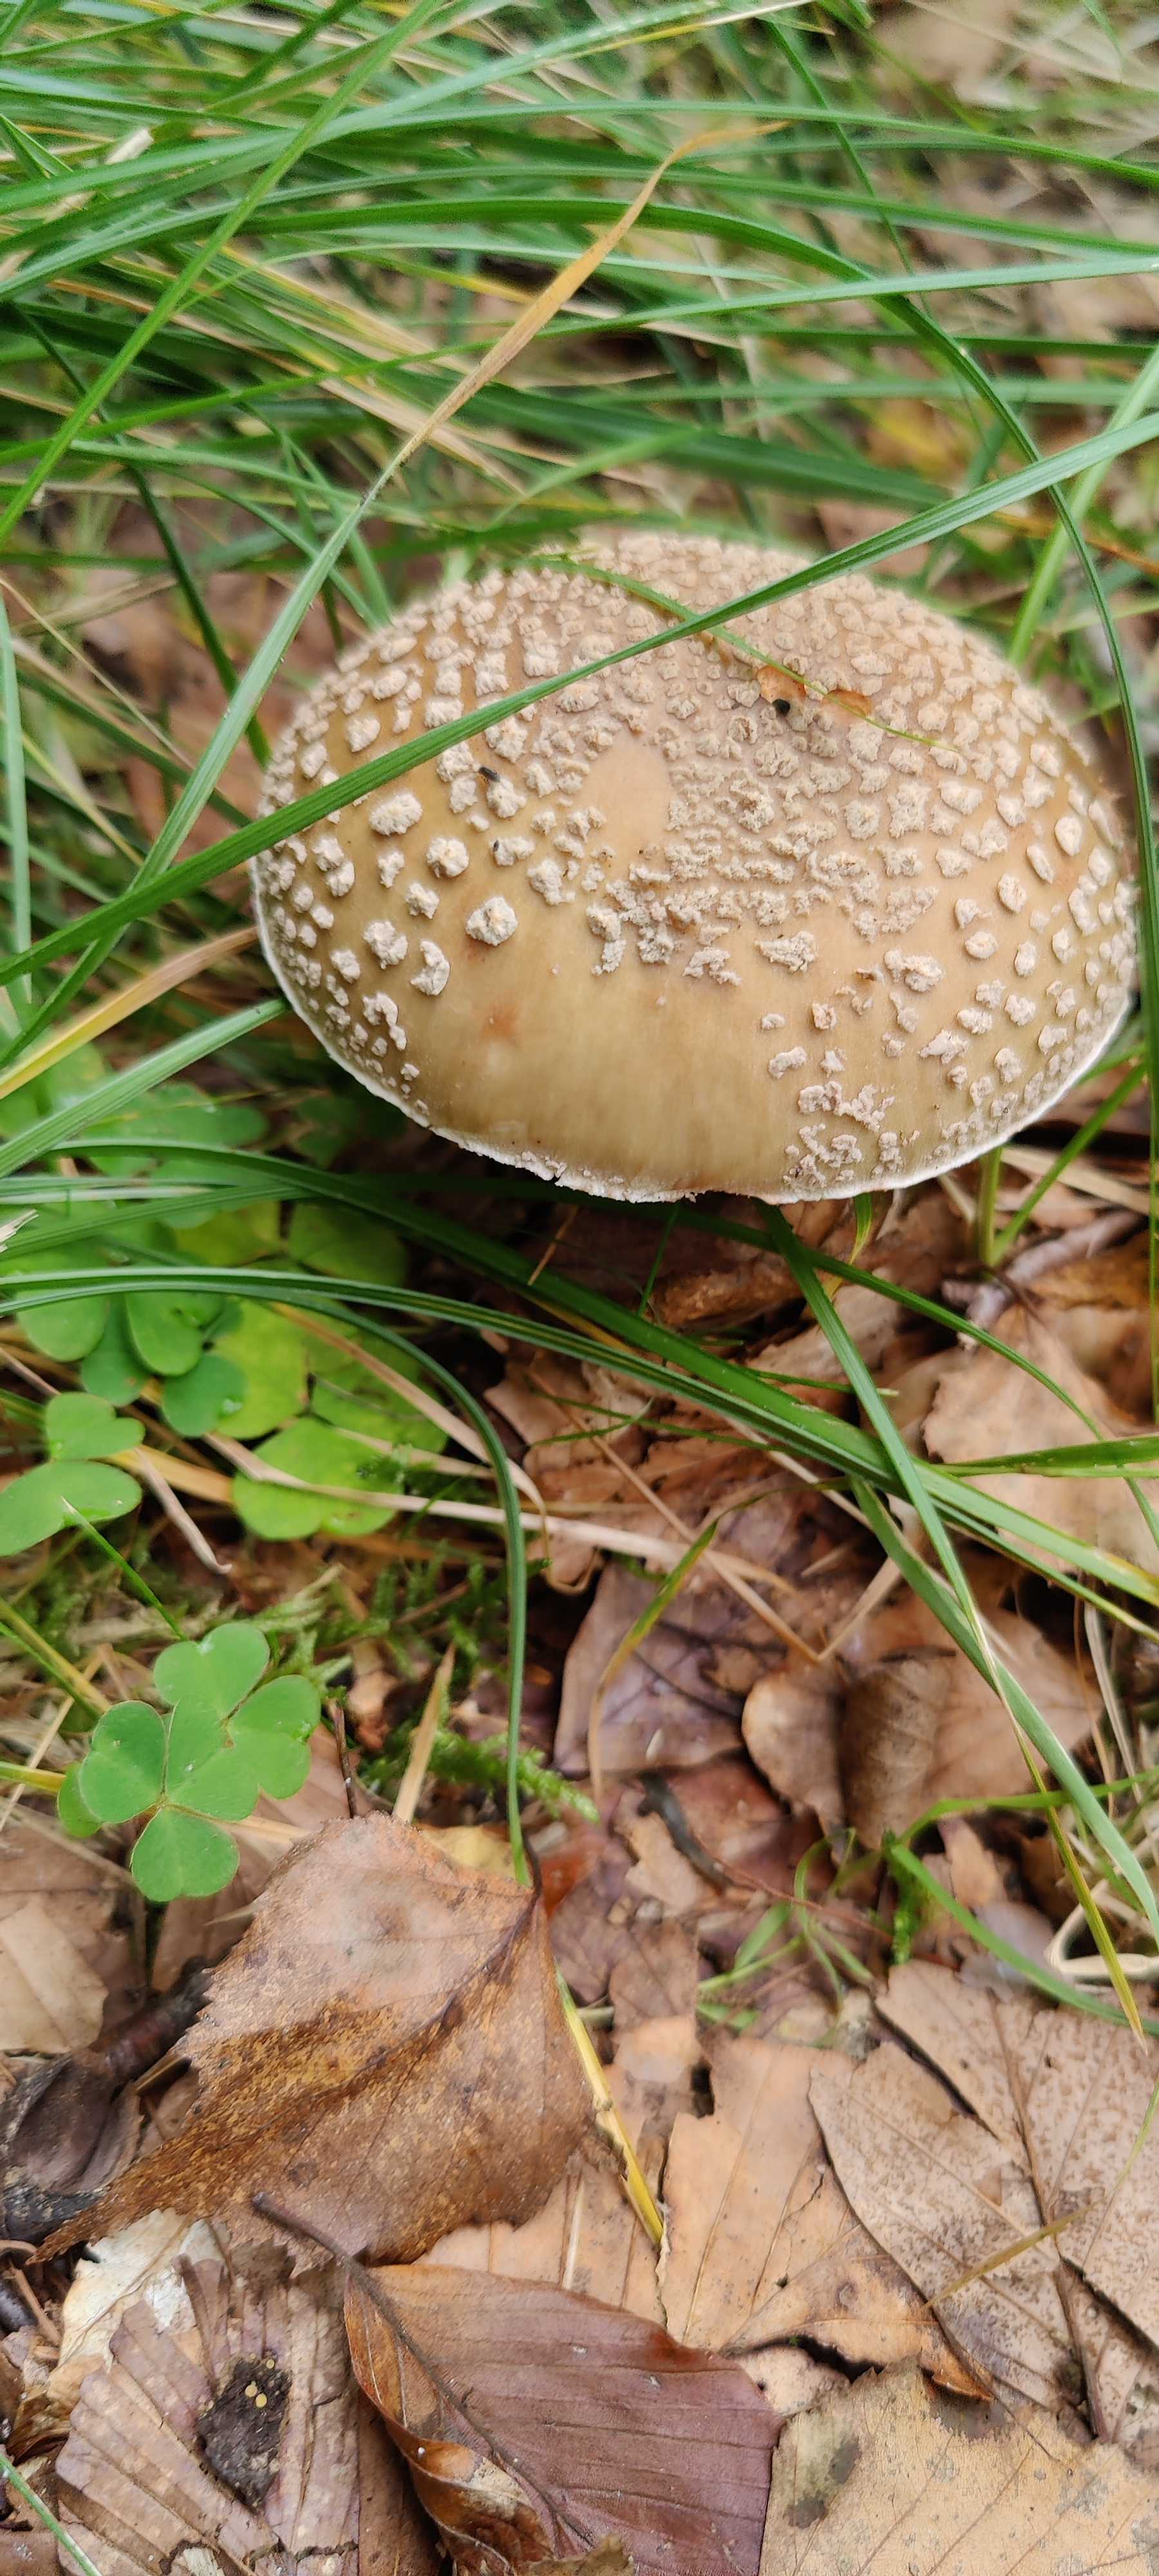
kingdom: Fungi
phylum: Basidiomycota
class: Agaricomycetes
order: Agaricales
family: Amanitaceae
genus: Amanita
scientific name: Amanita rubescens
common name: rødmende fluesvamp
